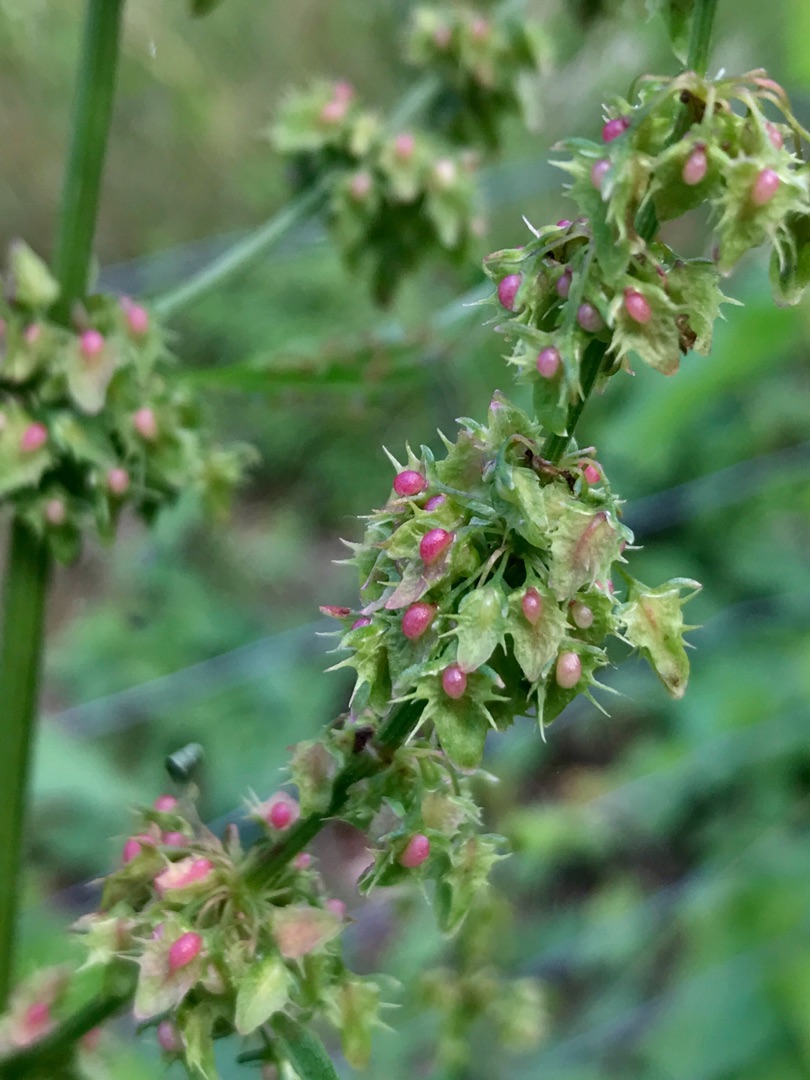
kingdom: Plantae
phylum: Tracheophyta
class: Magnoliopsida
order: Caryophyllales
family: Polygonaceae
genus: Rumex
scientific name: Rumex obtusifolius
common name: Butbladet skræppe
